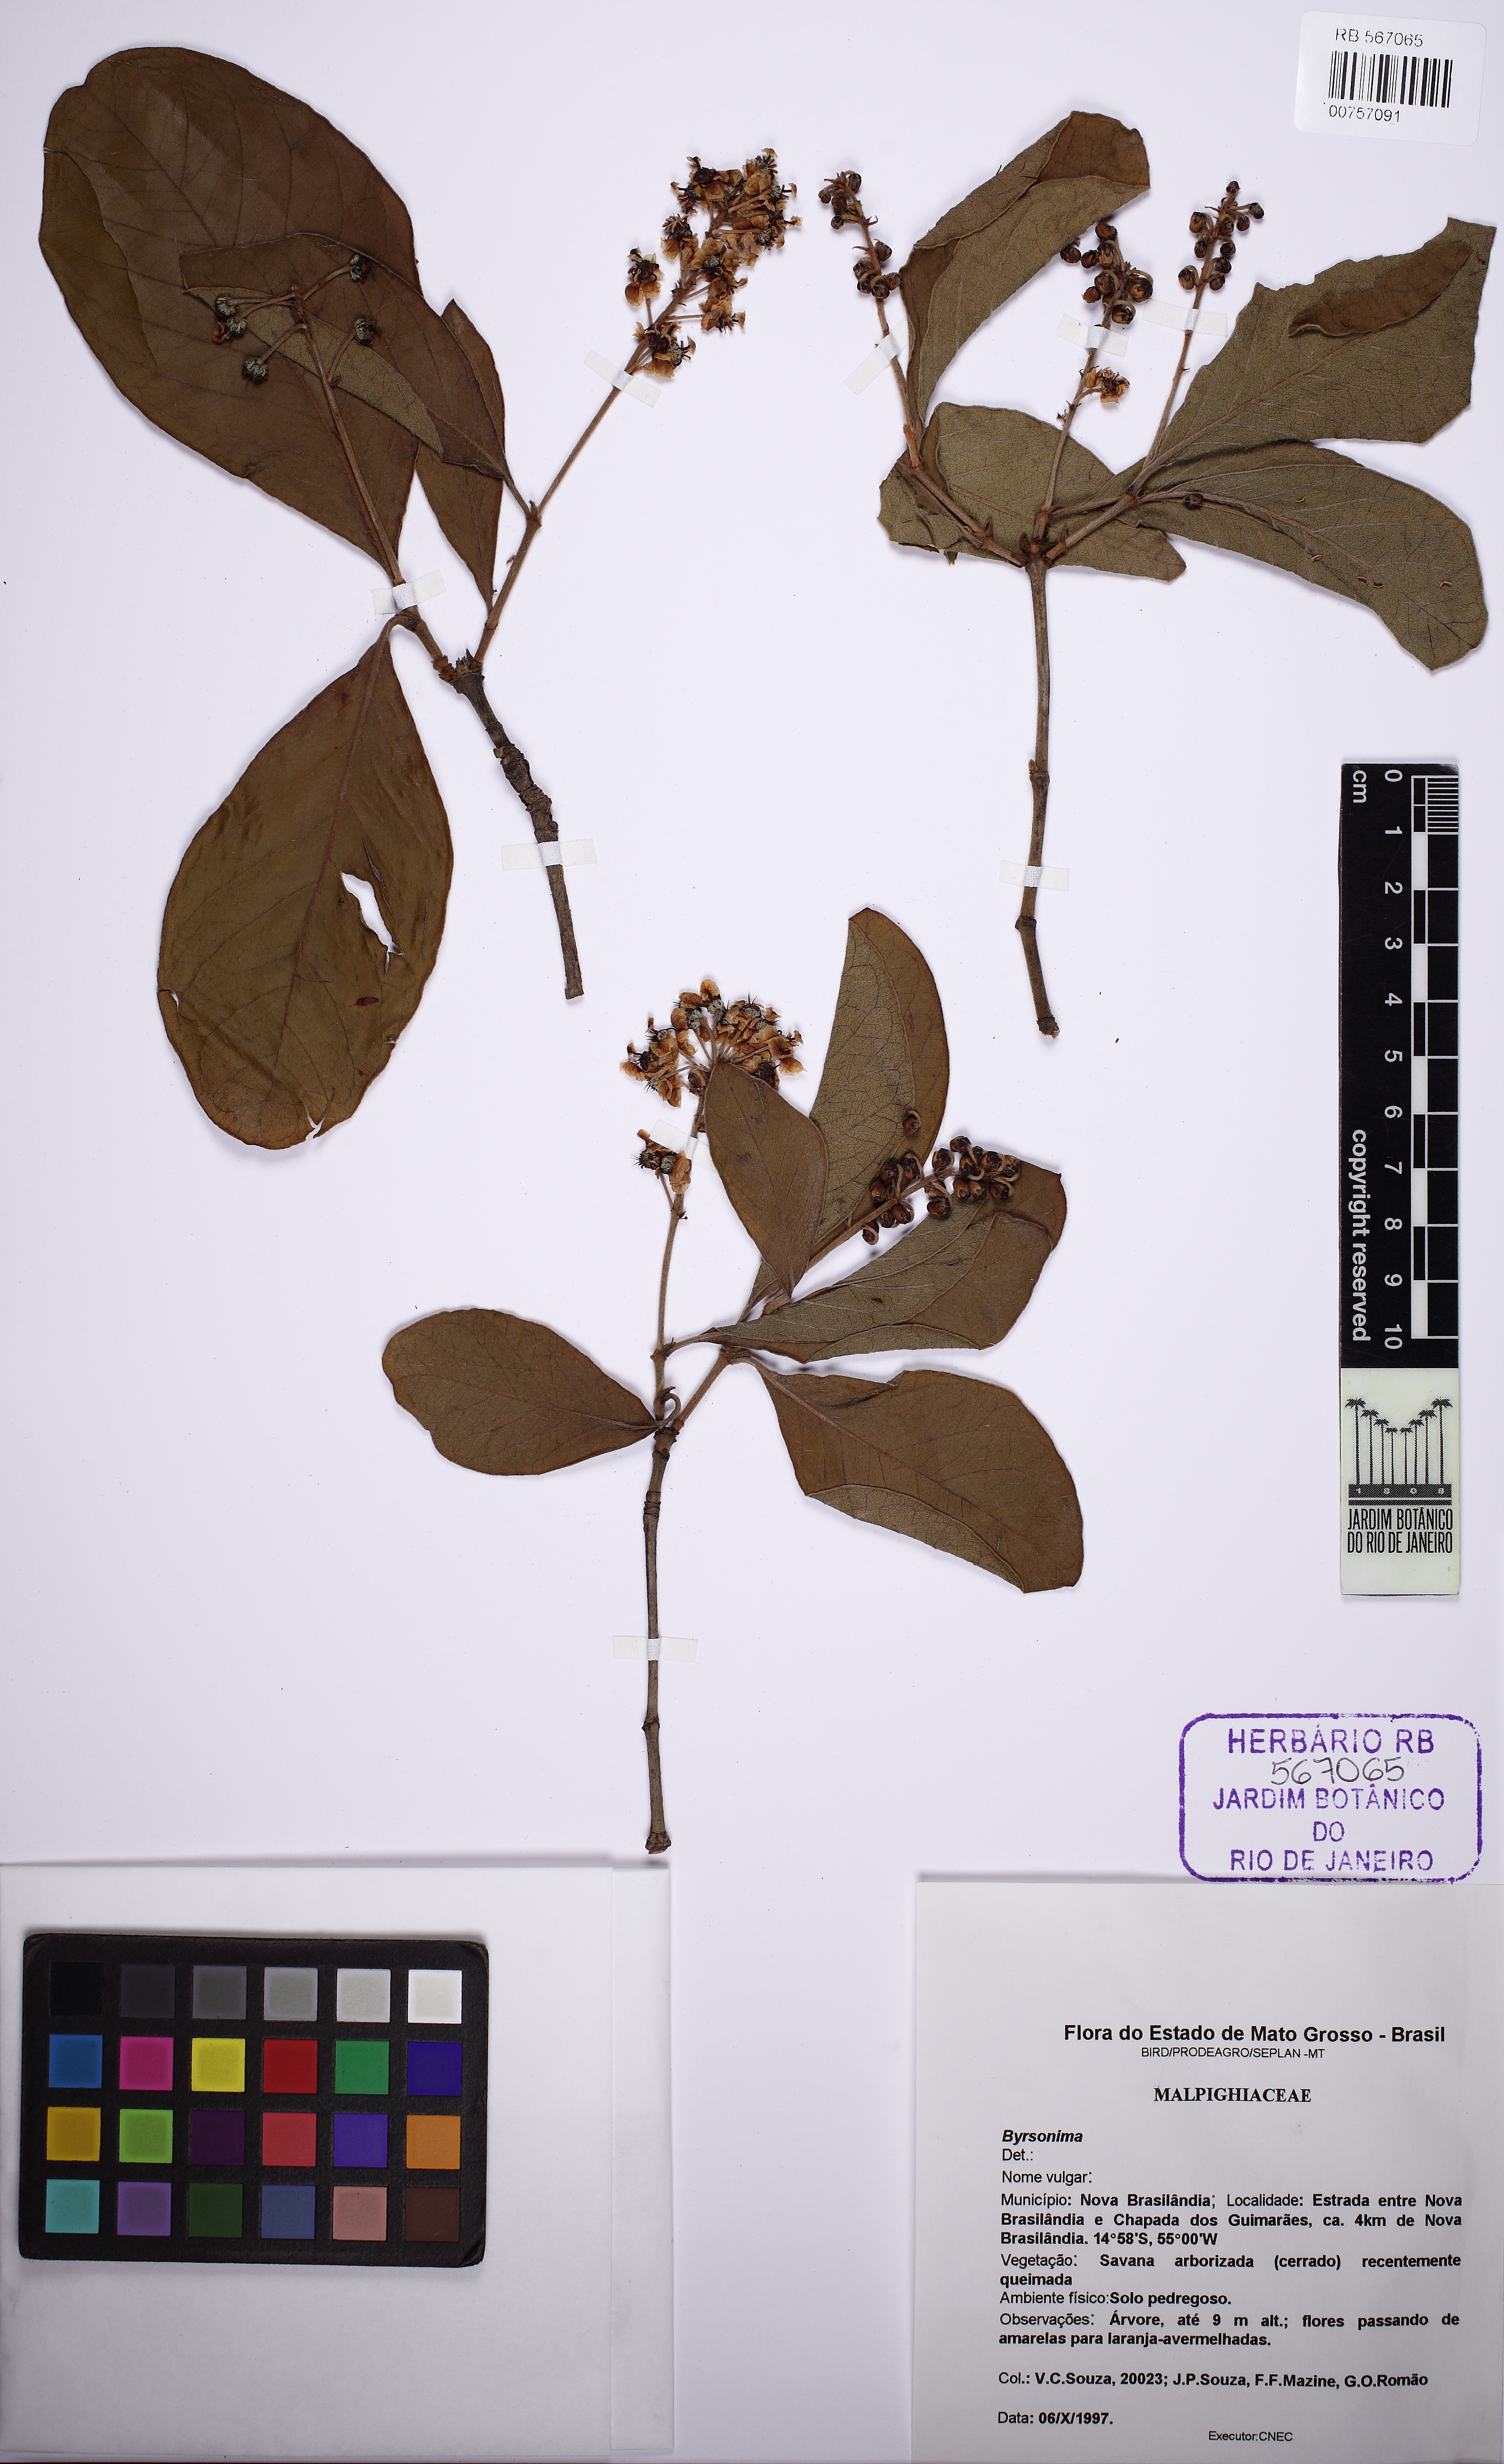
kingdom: Plantae
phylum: Tracheophyta
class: Magnoliopsida
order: Malpighiales
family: Malpighiaceae
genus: Byrsonima
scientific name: Byrsonima crassifolia
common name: Golden spoon
